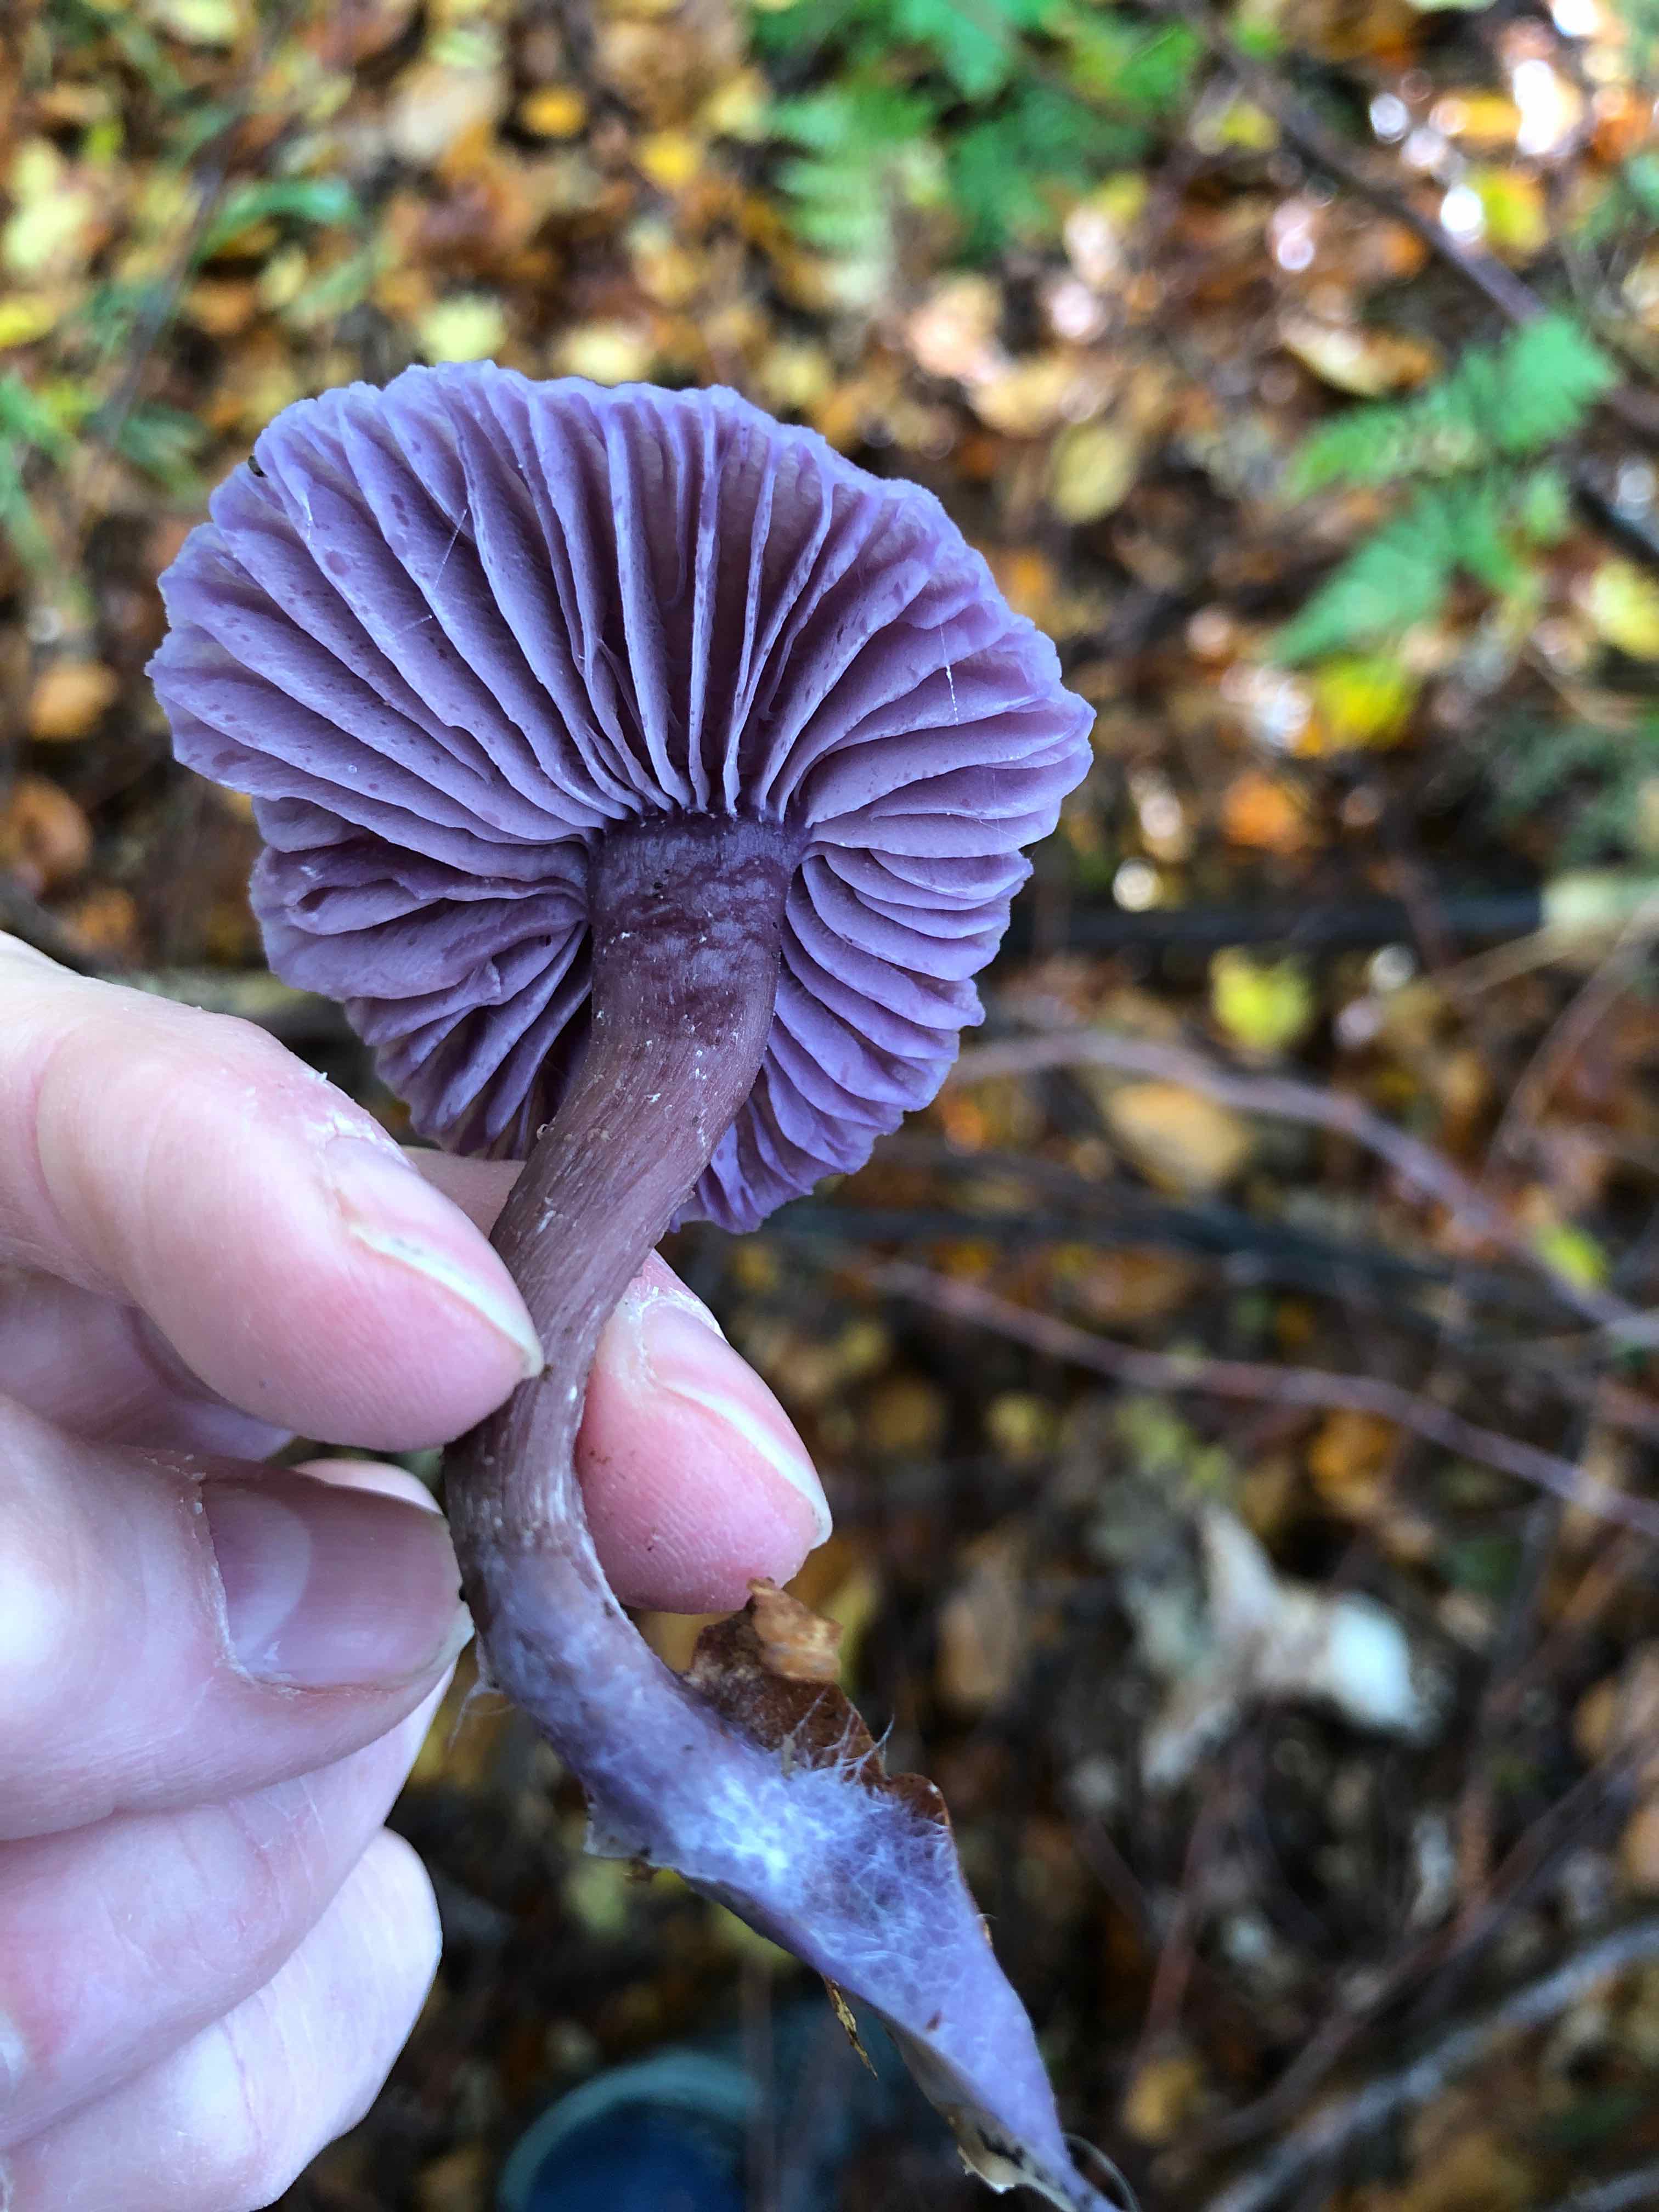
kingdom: Fungi
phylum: Basidiomycota
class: Agaricomycetes
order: Agaricales
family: Hydnangiaceae
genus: Laccaria
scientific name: Laccaria amethystina
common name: violet ametysthat
